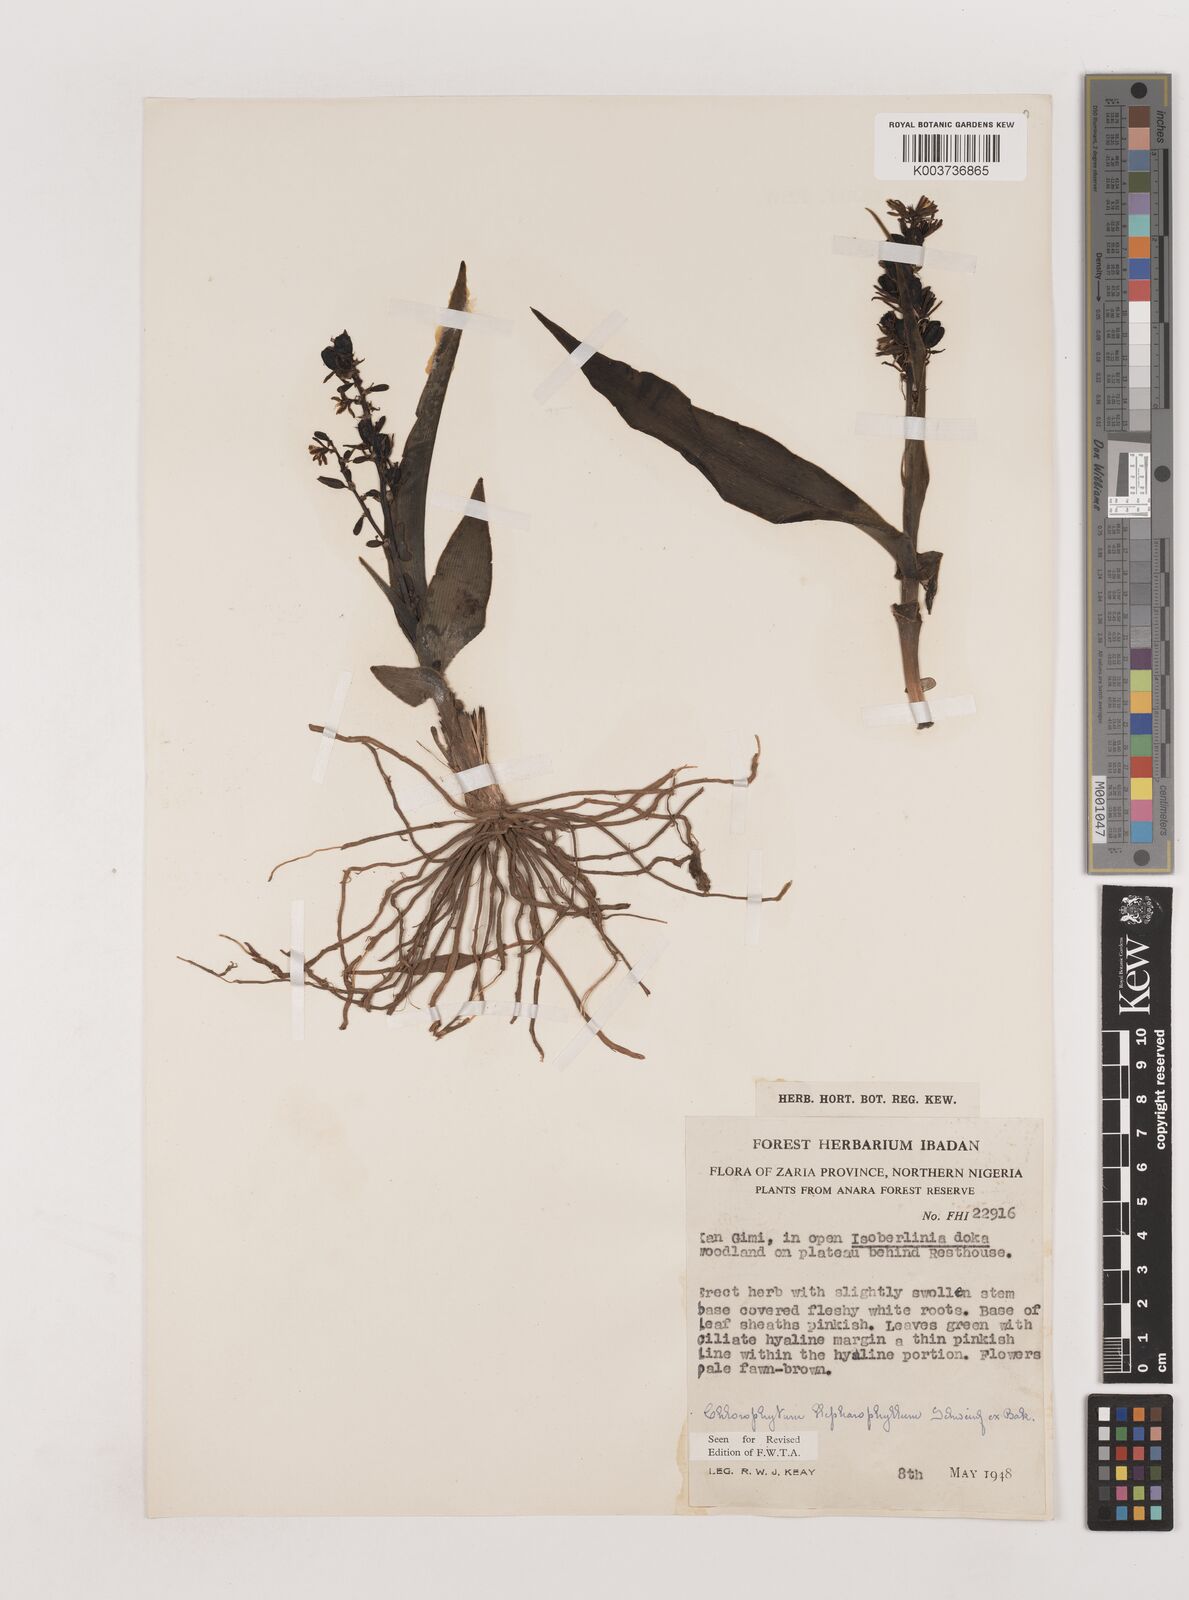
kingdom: Plantae
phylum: Tracheophyta
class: Liliopsida
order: Asparagales
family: Asparagaceae
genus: Chlorophytum
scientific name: Chlorophytum blepharophyllum
